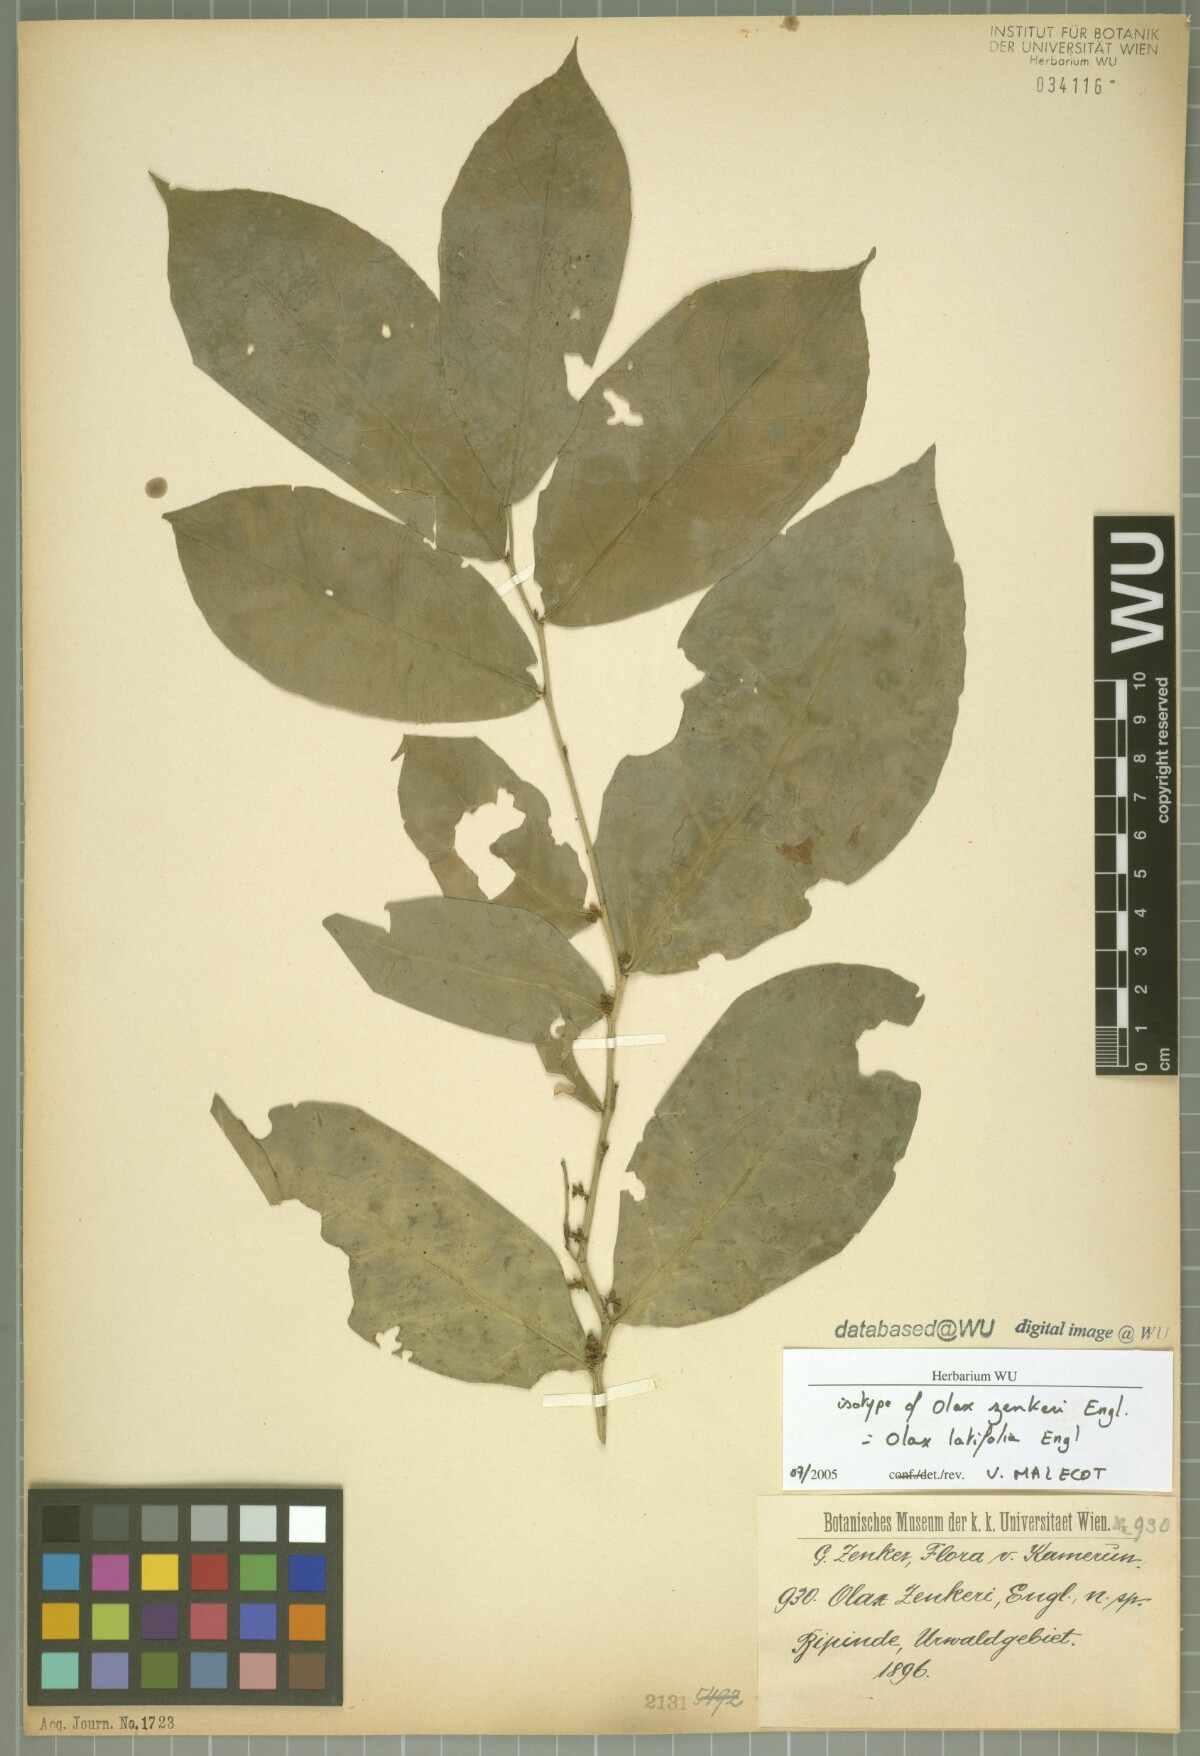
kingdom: Plantae
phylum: Tracheophyta
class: Magnoliopsida
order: Santalales
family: Olacaceae
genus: Olax
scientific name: Olax mannii
